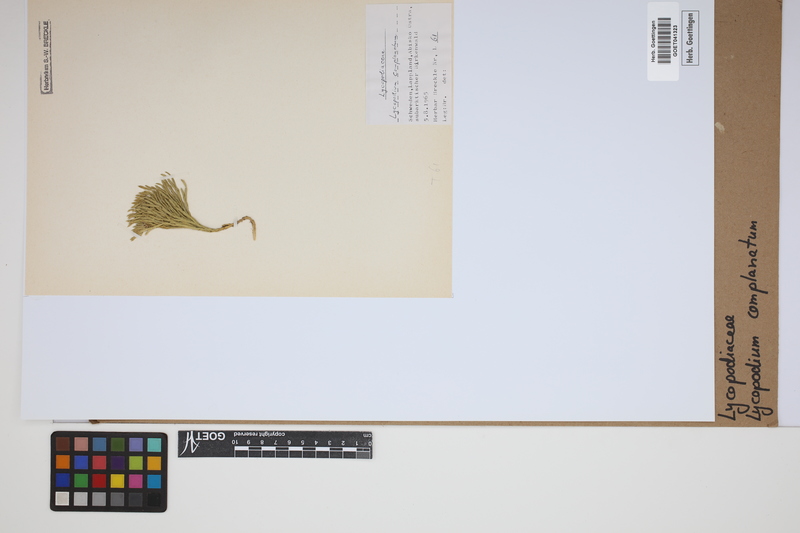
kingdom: Plantae
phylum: Tracheophyta
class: Lycopodiopsida
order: Lycopodiales
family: Lycopodiaceae
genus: Diphasiastrum
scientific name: Diphasiastrum complanatum
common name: Northern running-pine
